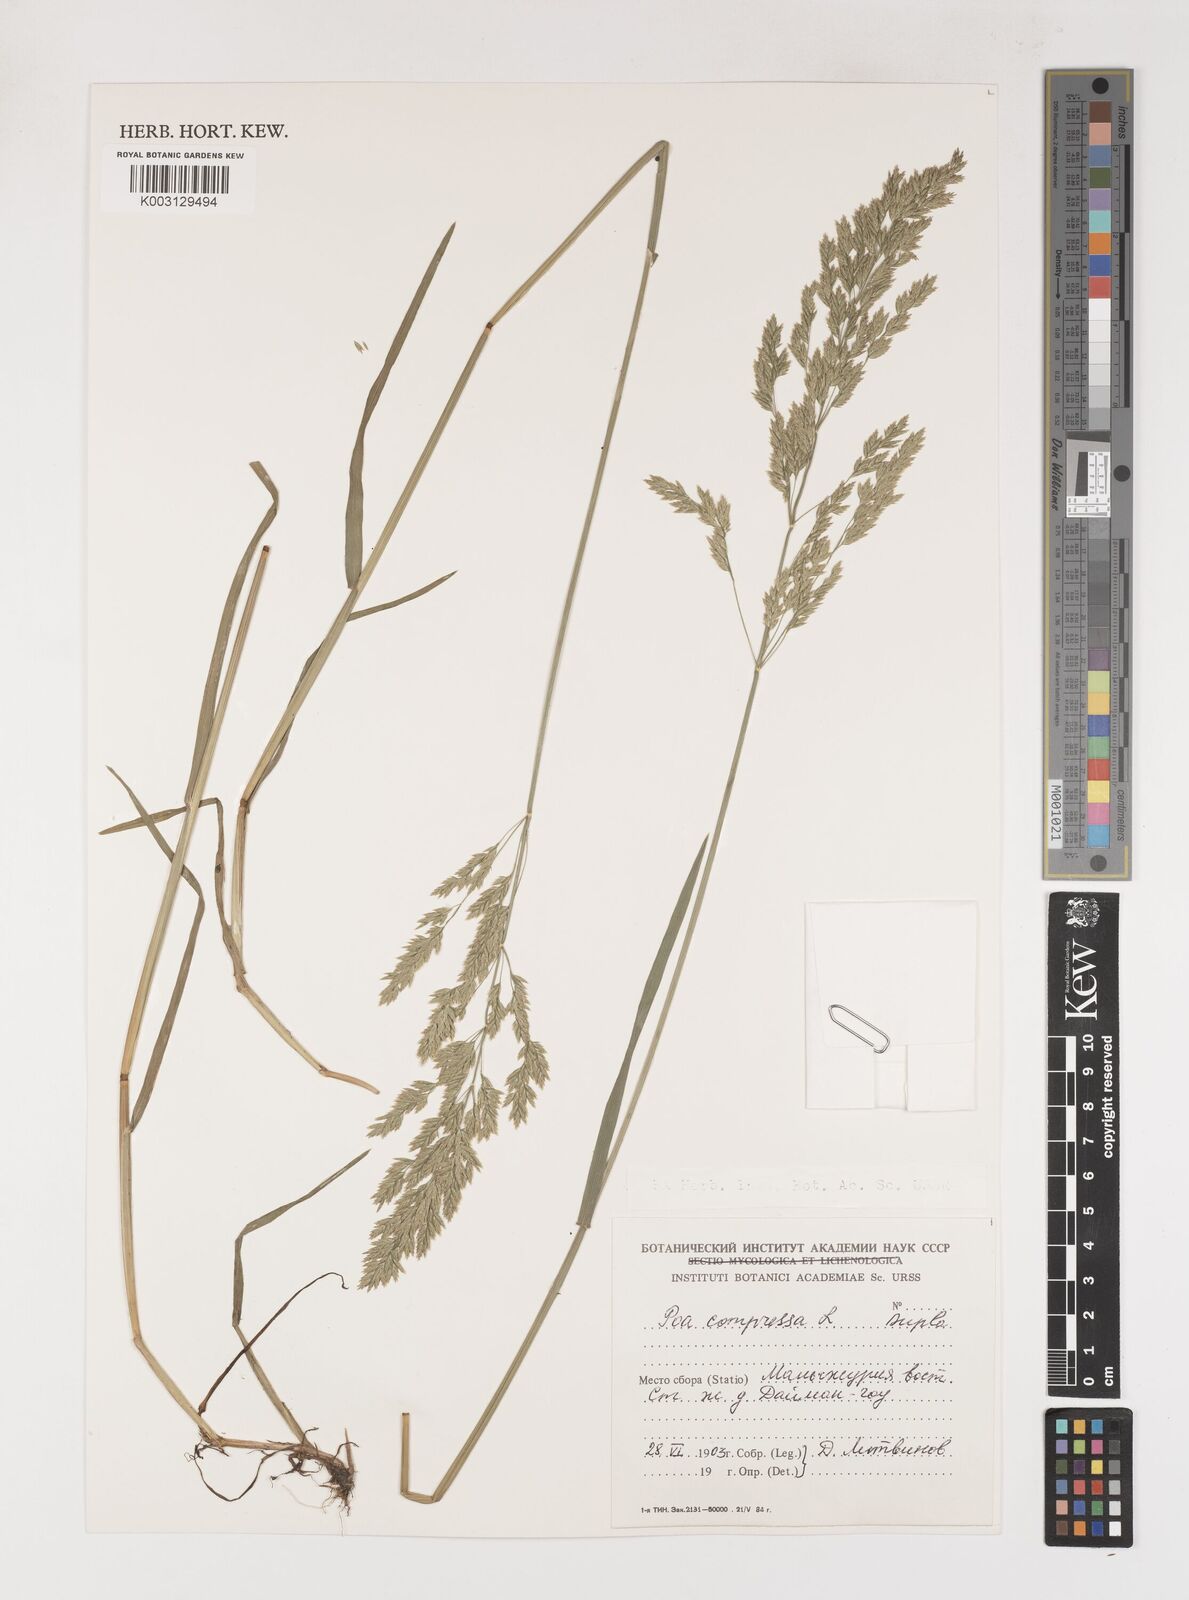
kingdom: Plantae
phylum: Tracheophyta
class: Liliopsida
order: Poales
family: Poaceae
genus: Poa
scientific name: Poa compressa
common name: Canada bluegrass
